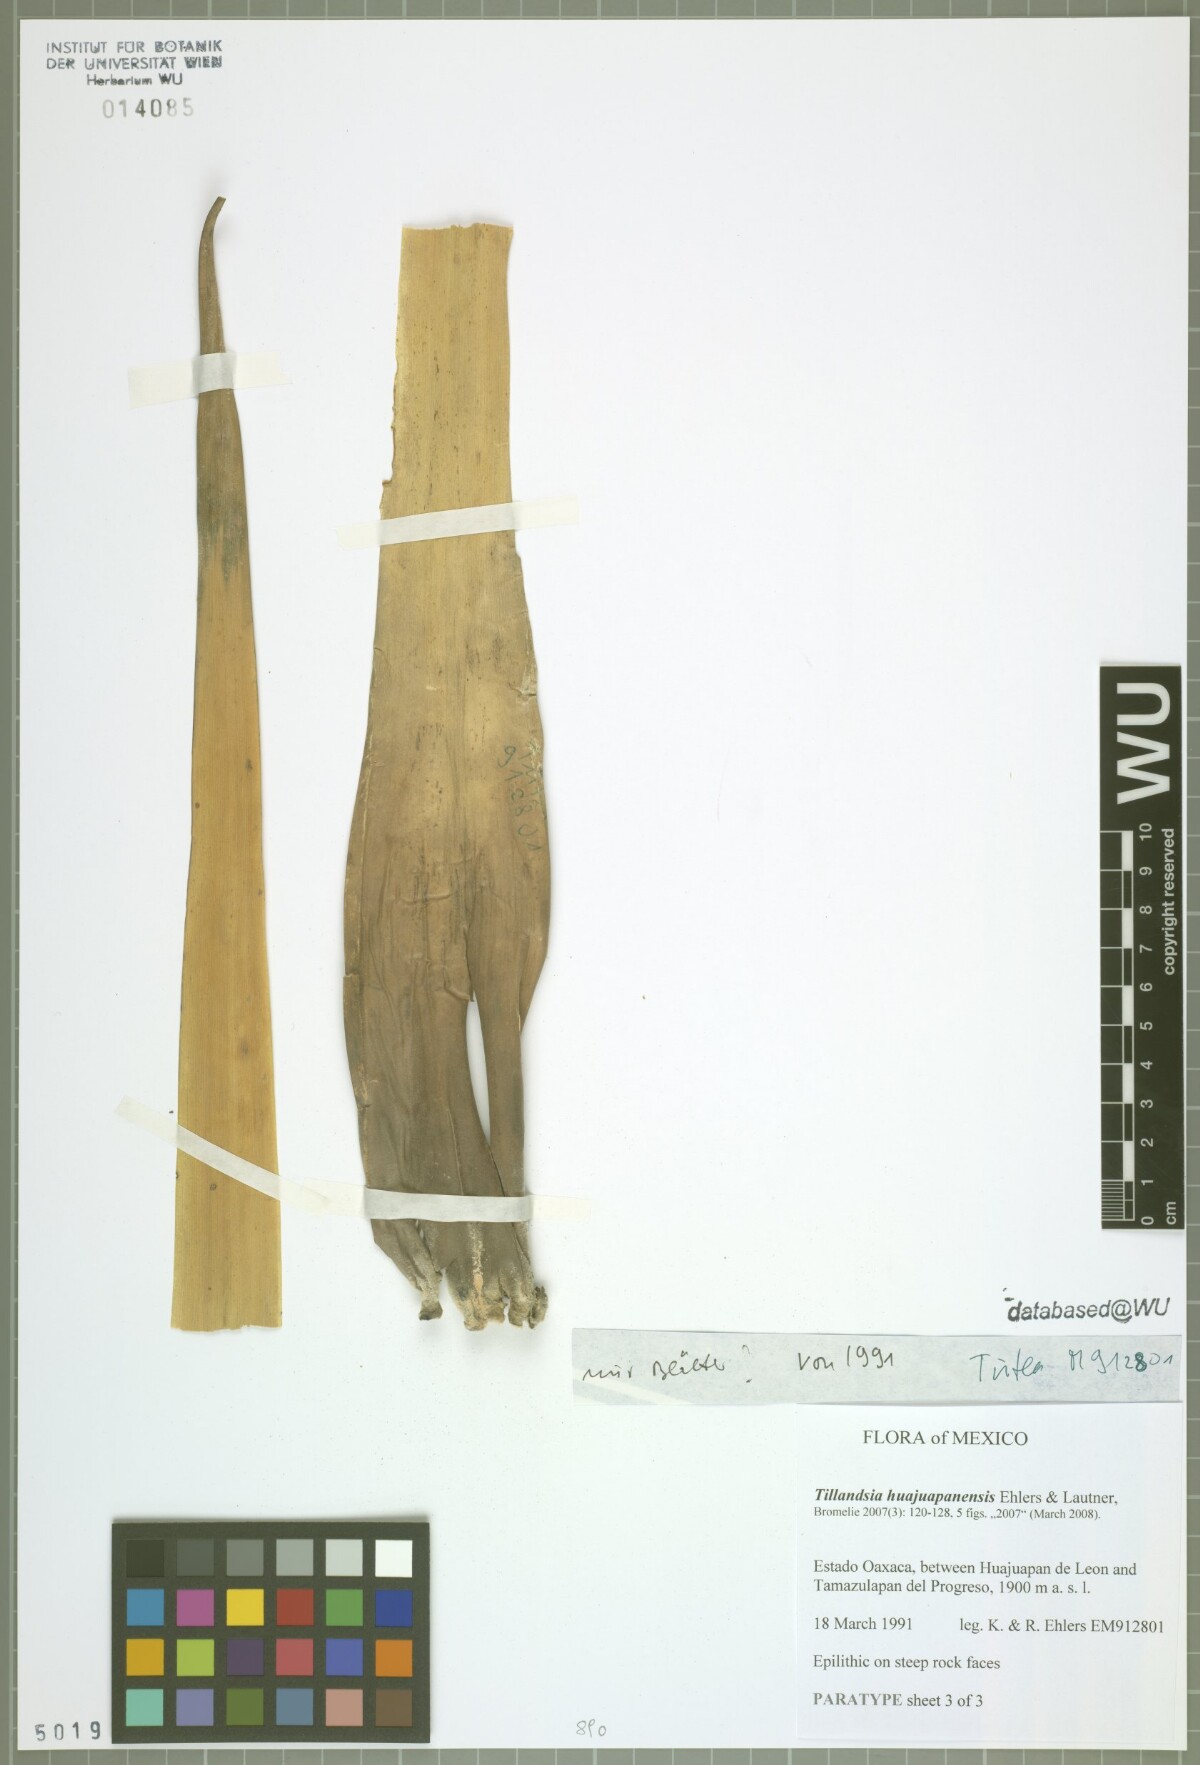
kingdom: Plantae
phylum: Tracheophyta
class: Liliopsida
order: Poales
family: Bromeliaceae
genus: Tillandsia
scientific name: Tillandsia huajuapanensis
